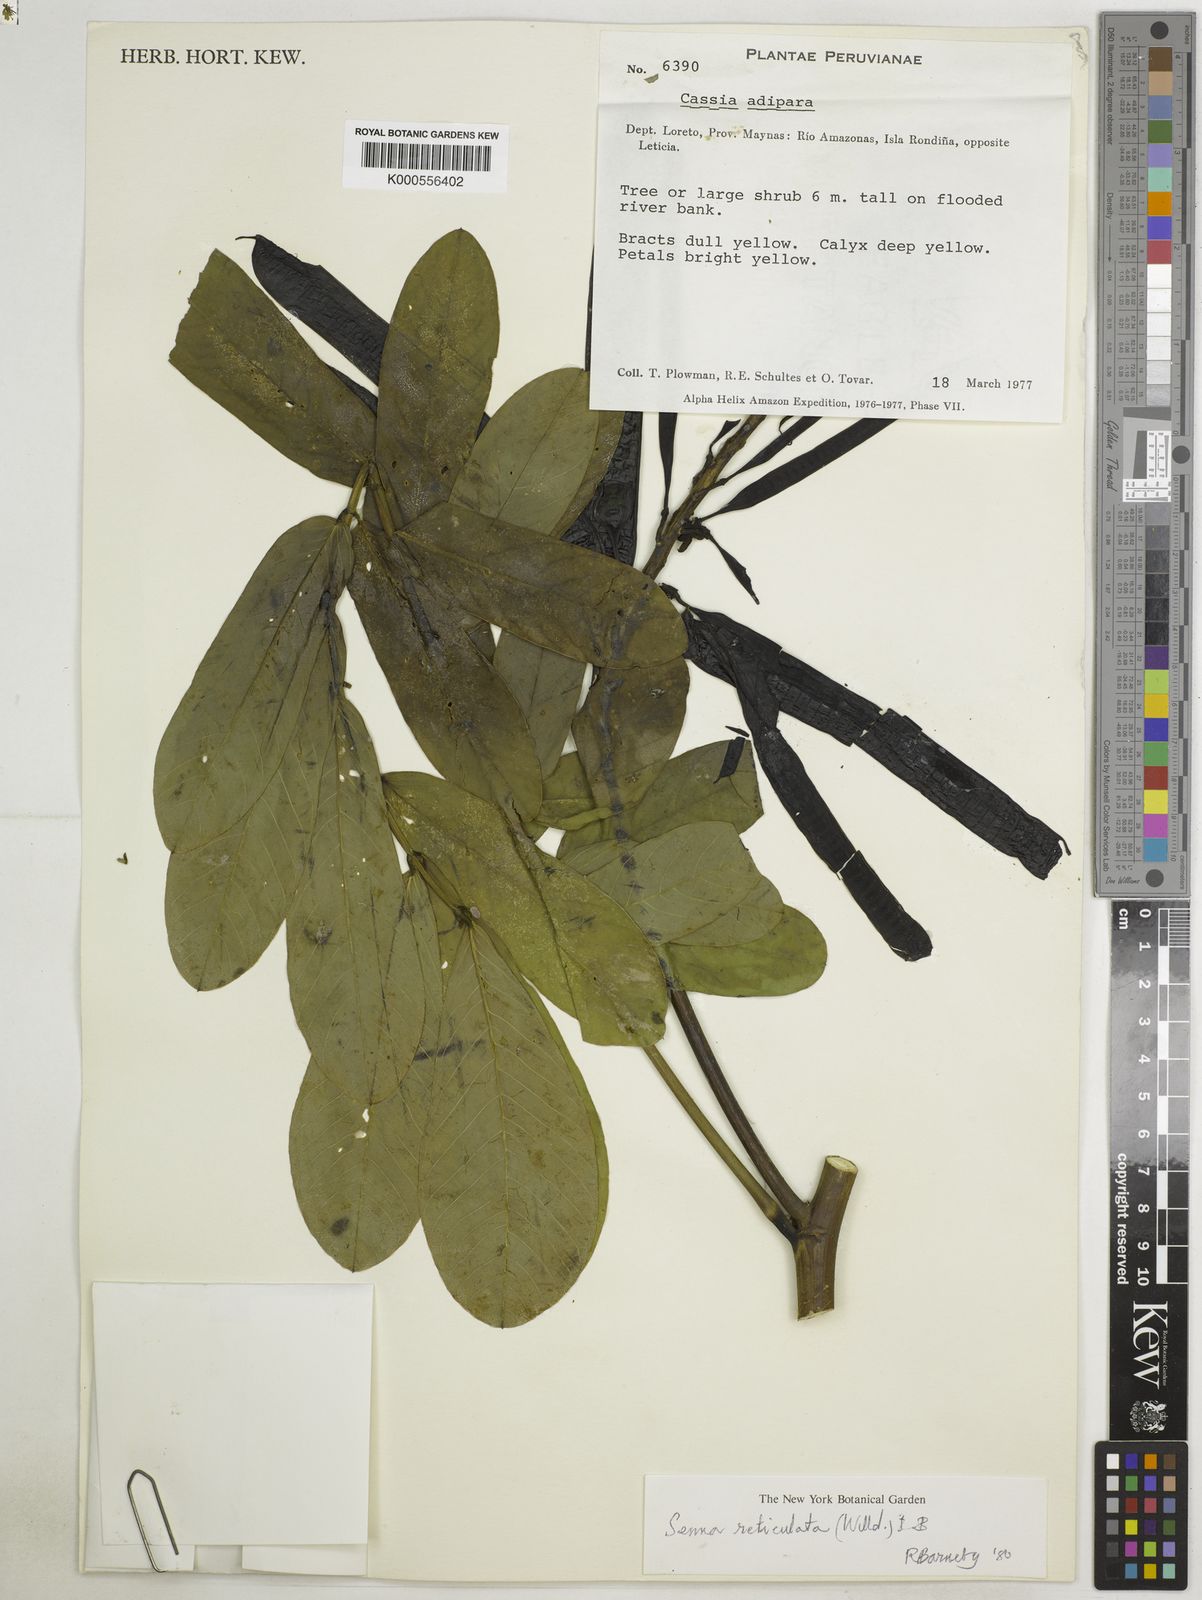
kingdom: Plantae
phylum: Tracheophyta
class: Magnoliopsida
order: Fabales
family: Fabaceae
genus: Senna
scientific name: Senna reticulata
